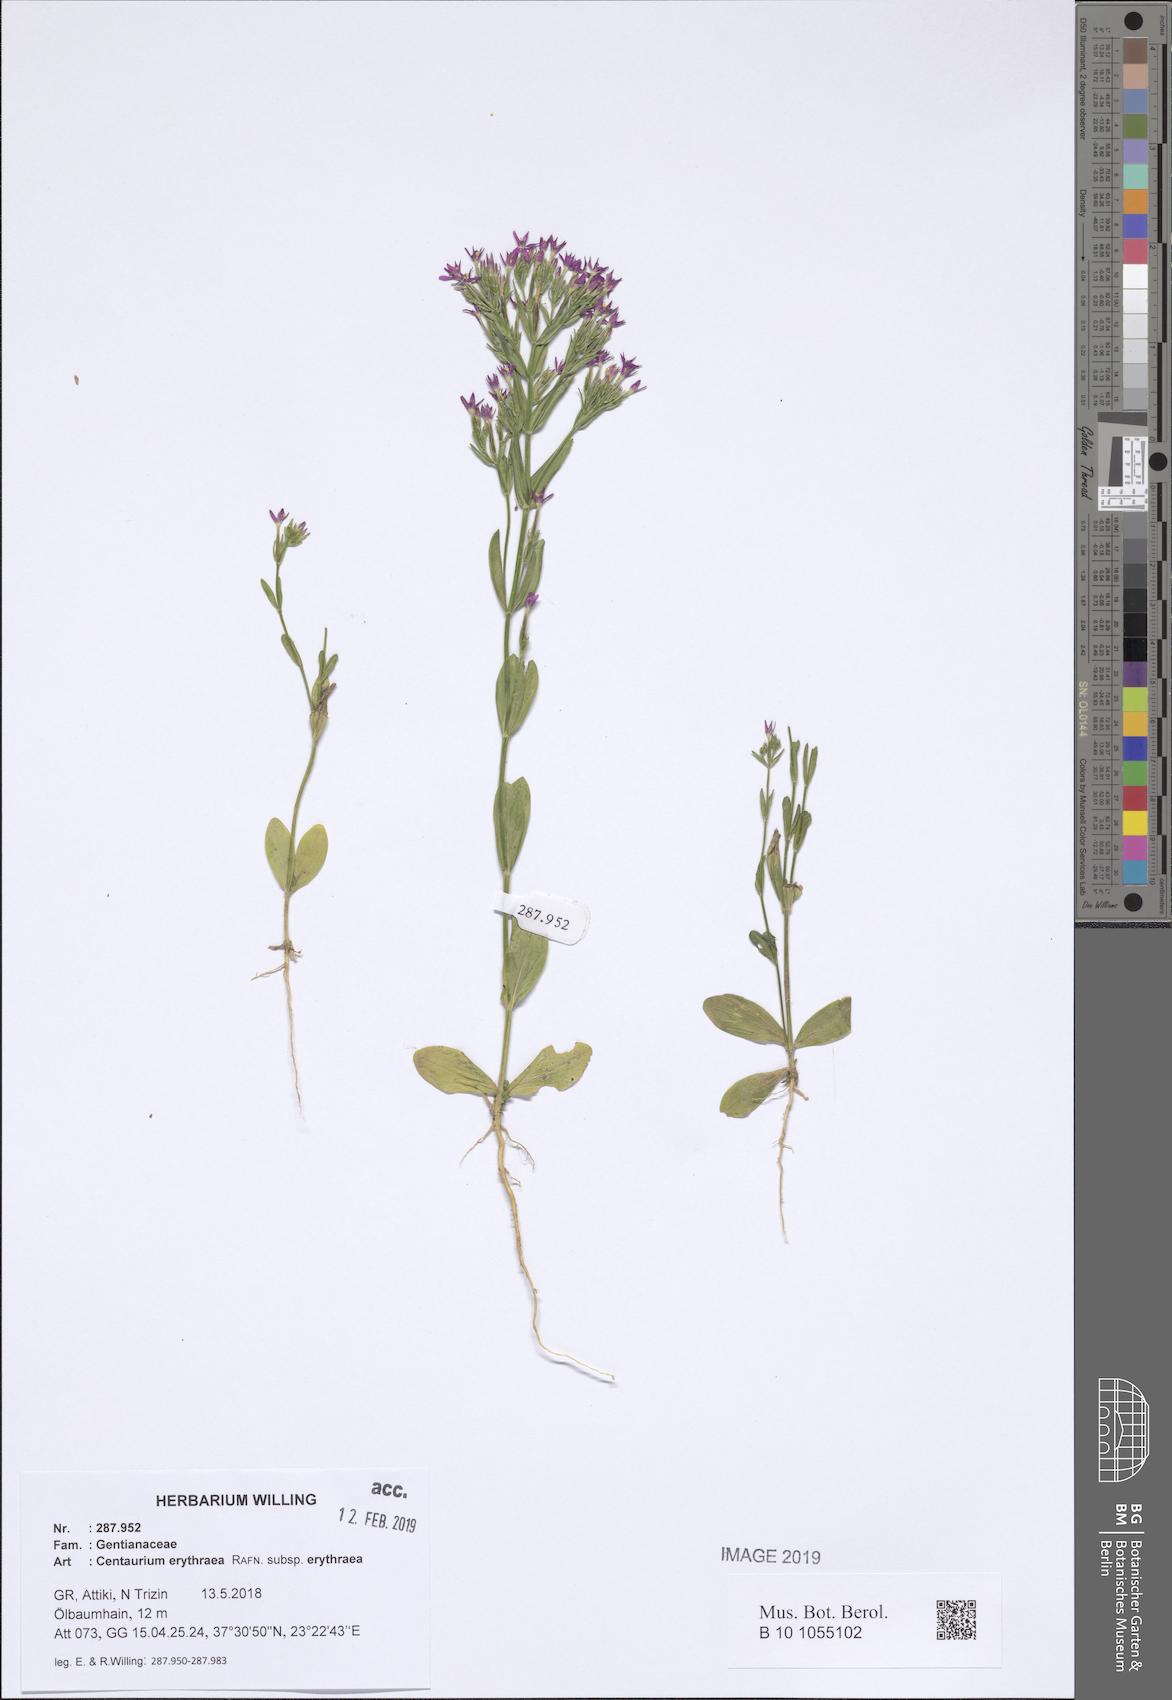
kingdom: Plantae
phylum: Tracheophyta
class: Magnoliopsida
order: Gentianales
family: Gentianaceae
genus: Centaurium
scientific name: Centaurium erythraea
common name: Common centaury
